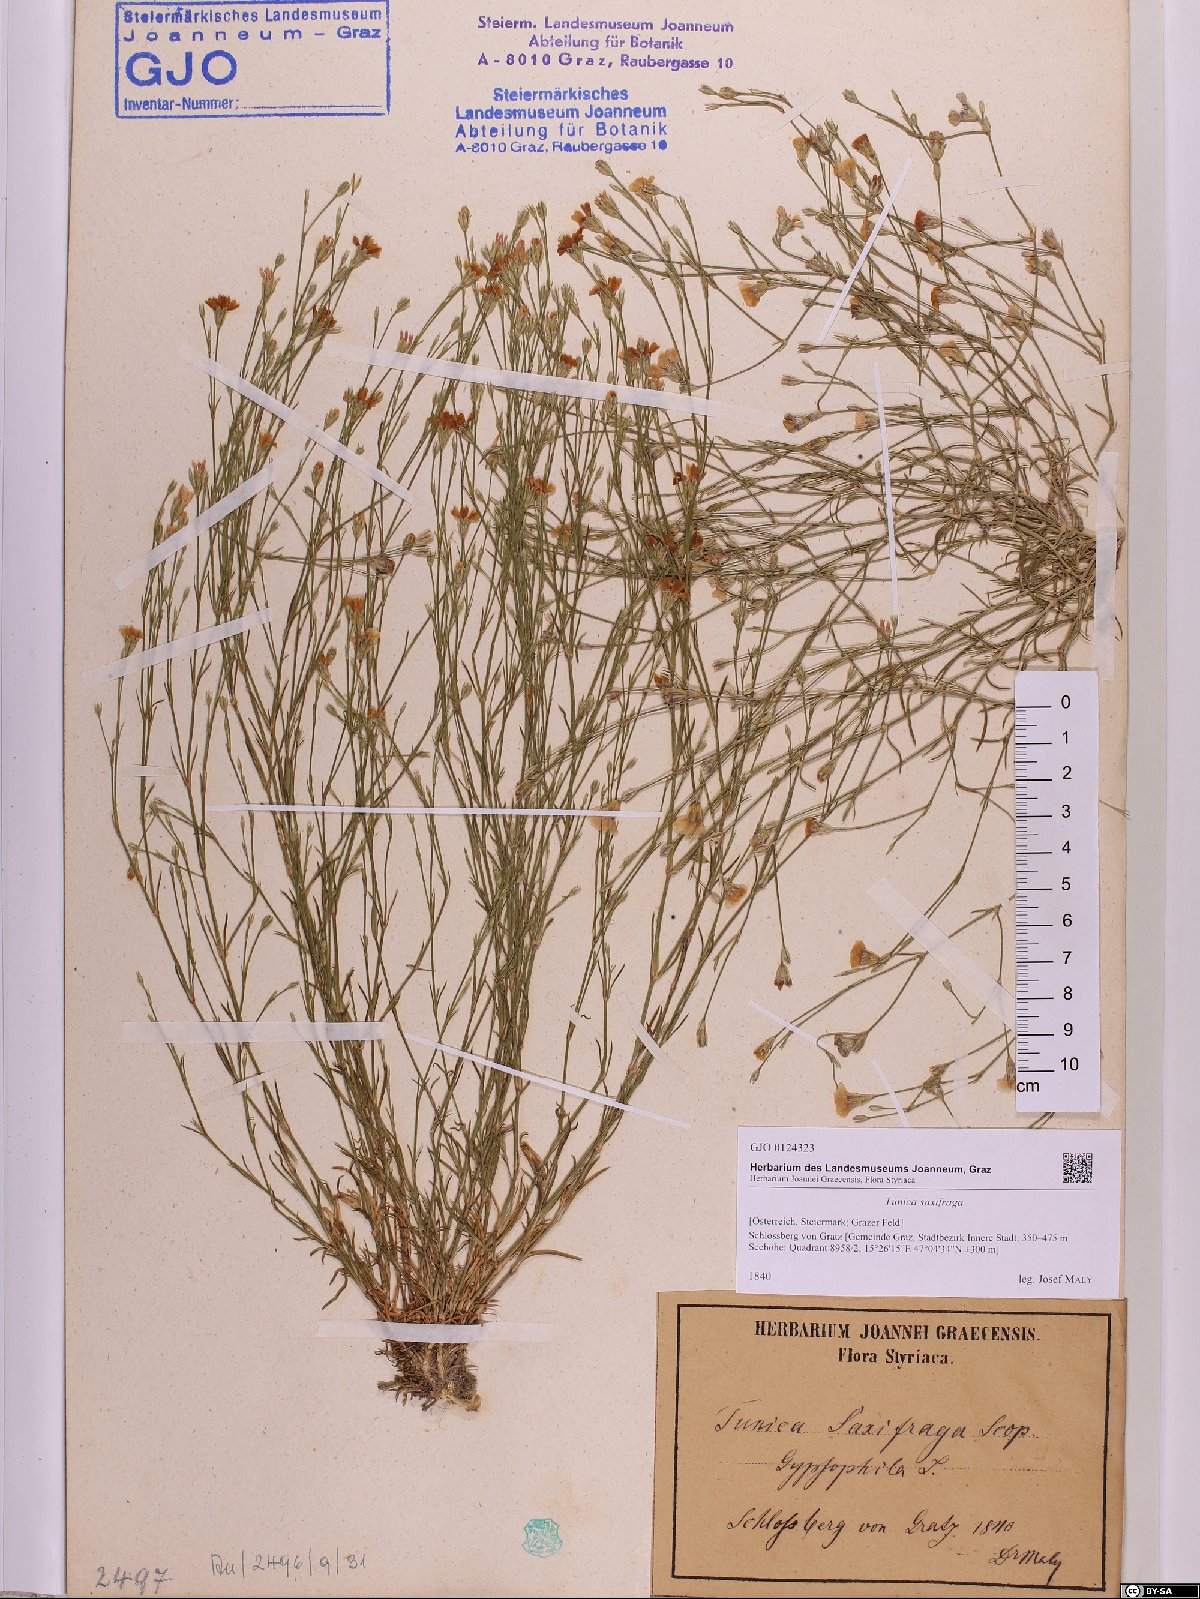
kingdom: Plantae
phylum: Tracheophyta
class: Magnoliopsida
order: Caryophyllales
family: Caryophyllaceae
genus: Petrorhagia
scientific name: Petrorhagia saxifraga
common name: Tunicflower
